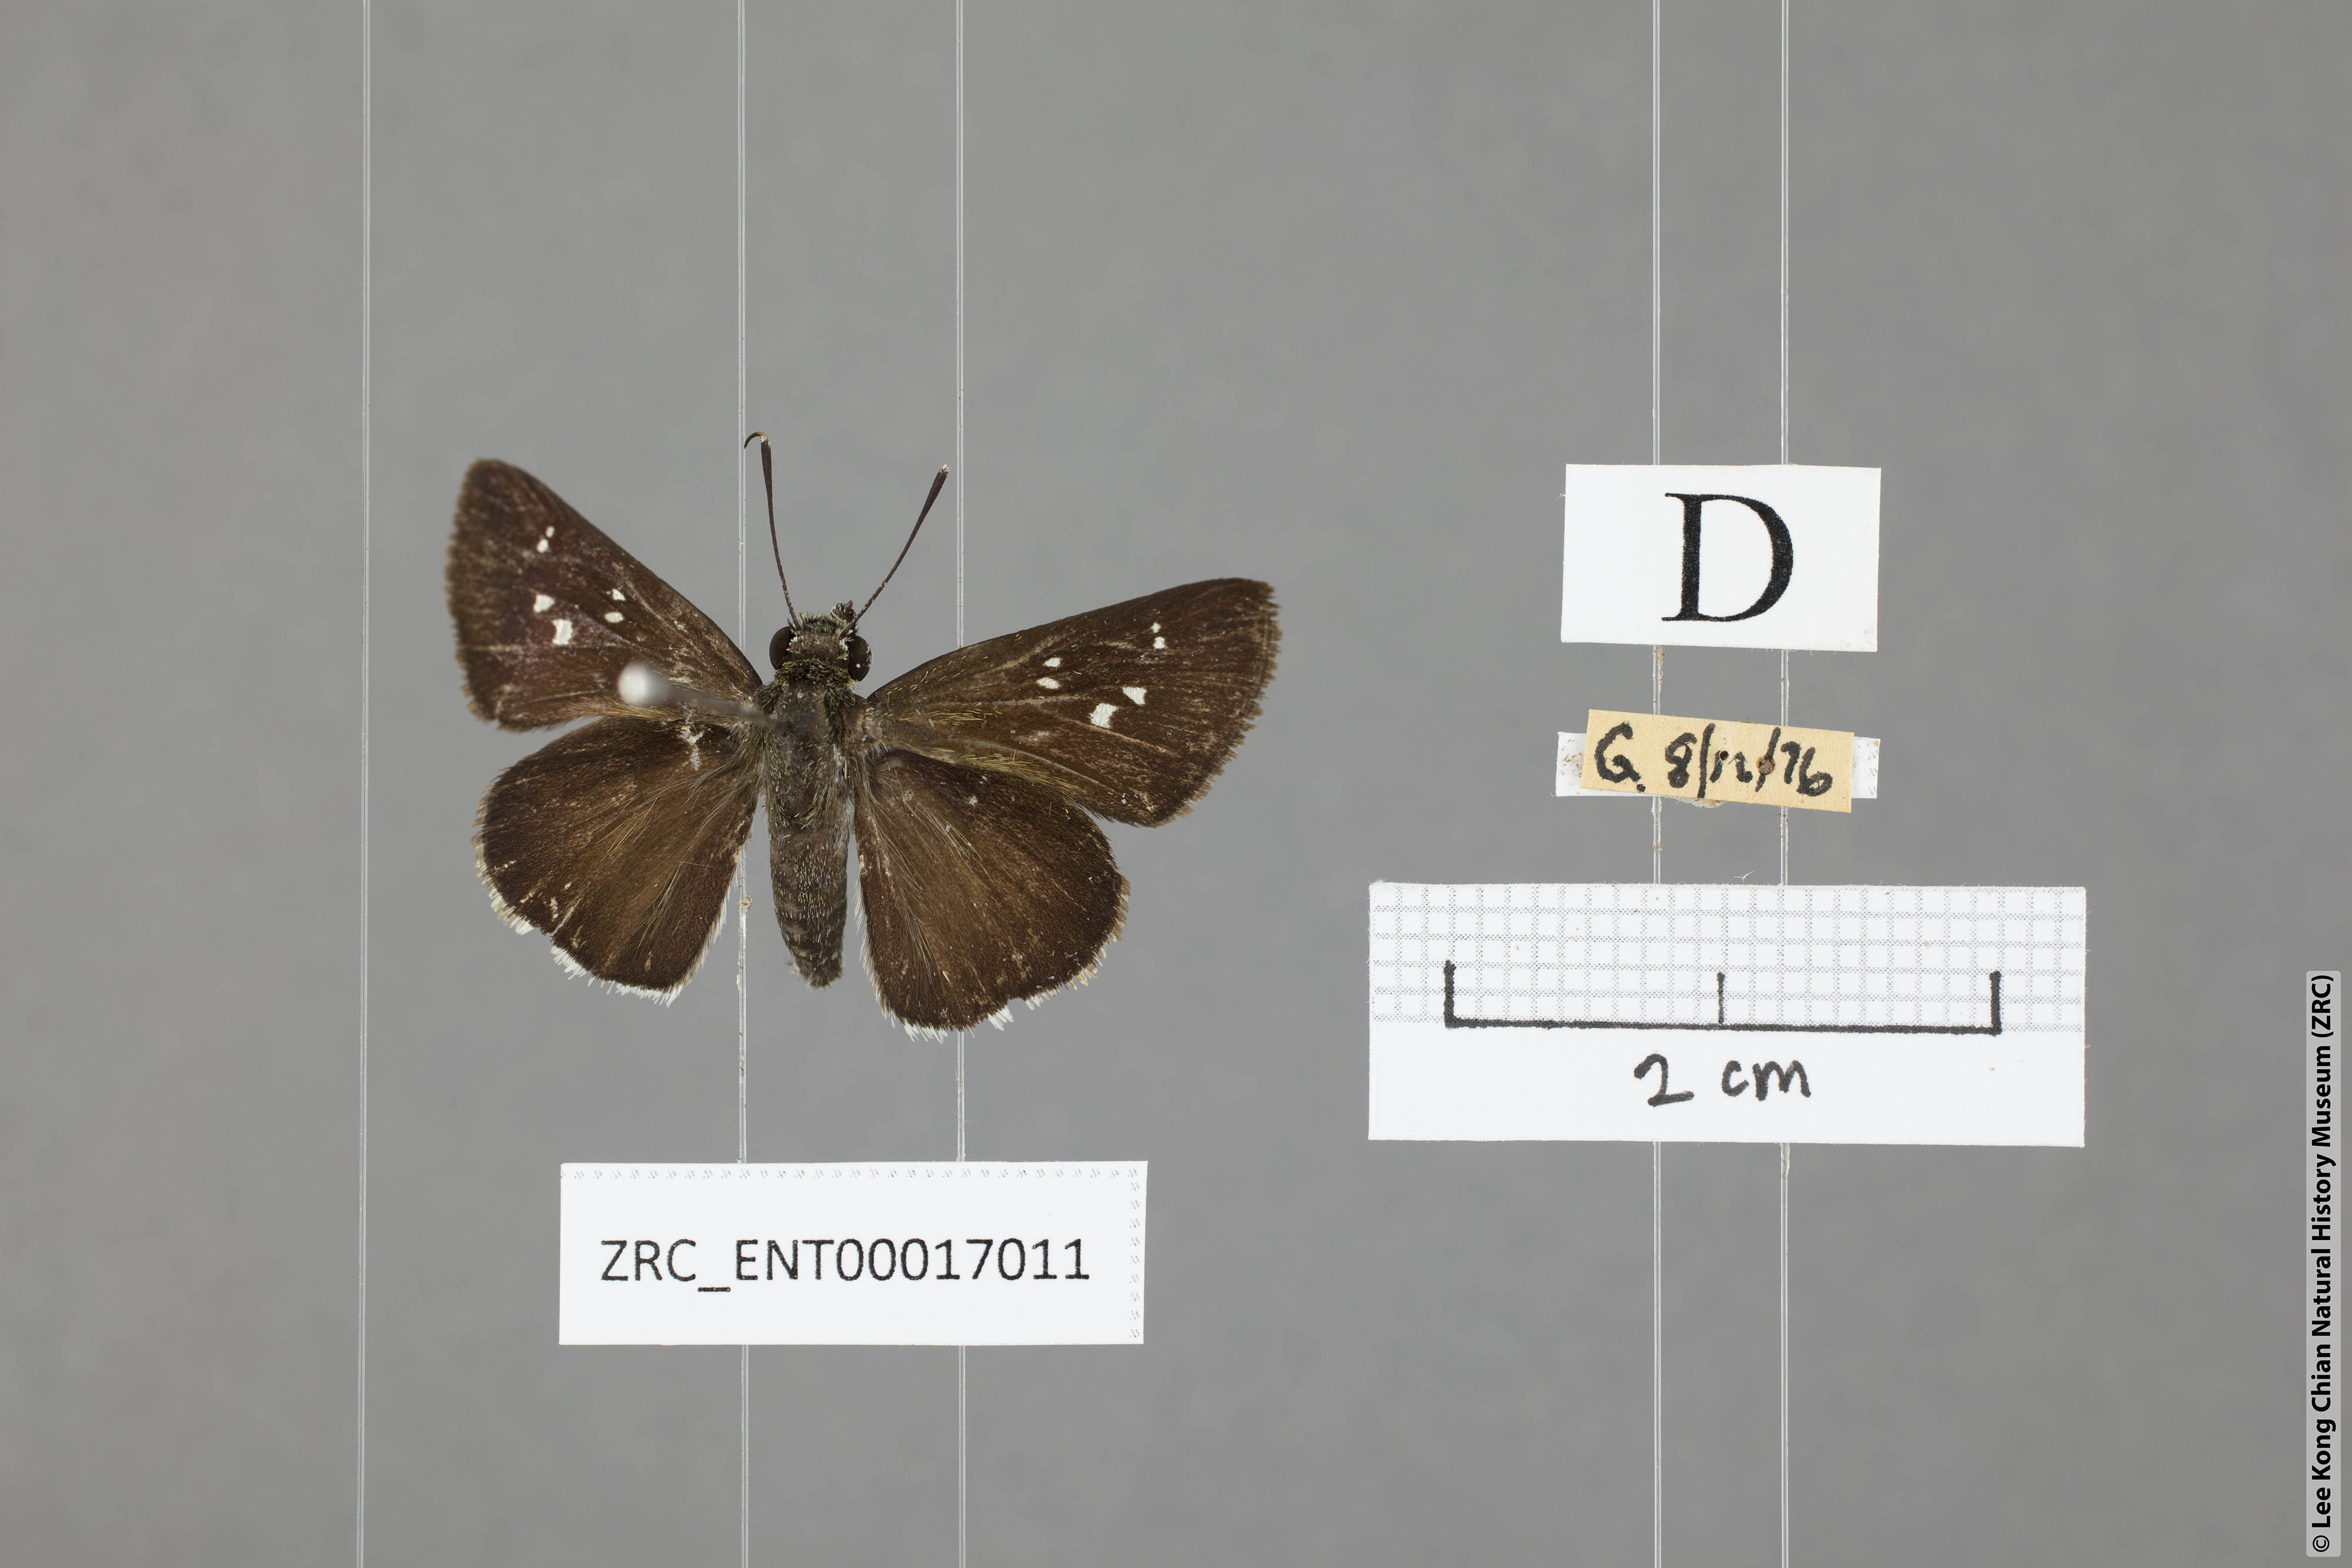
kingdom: Animalia
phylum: Arthropoda
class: Insecta
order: Lepidoptera
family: Hesperiidae
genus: Halpe
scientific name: Halpe insignis
